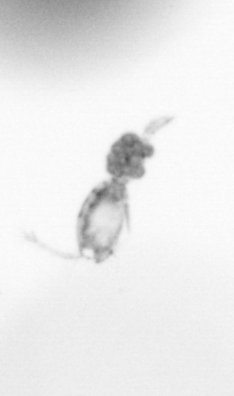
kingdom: Animalia
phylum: Arthropoda
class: Copepoda
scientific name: Copepoda
